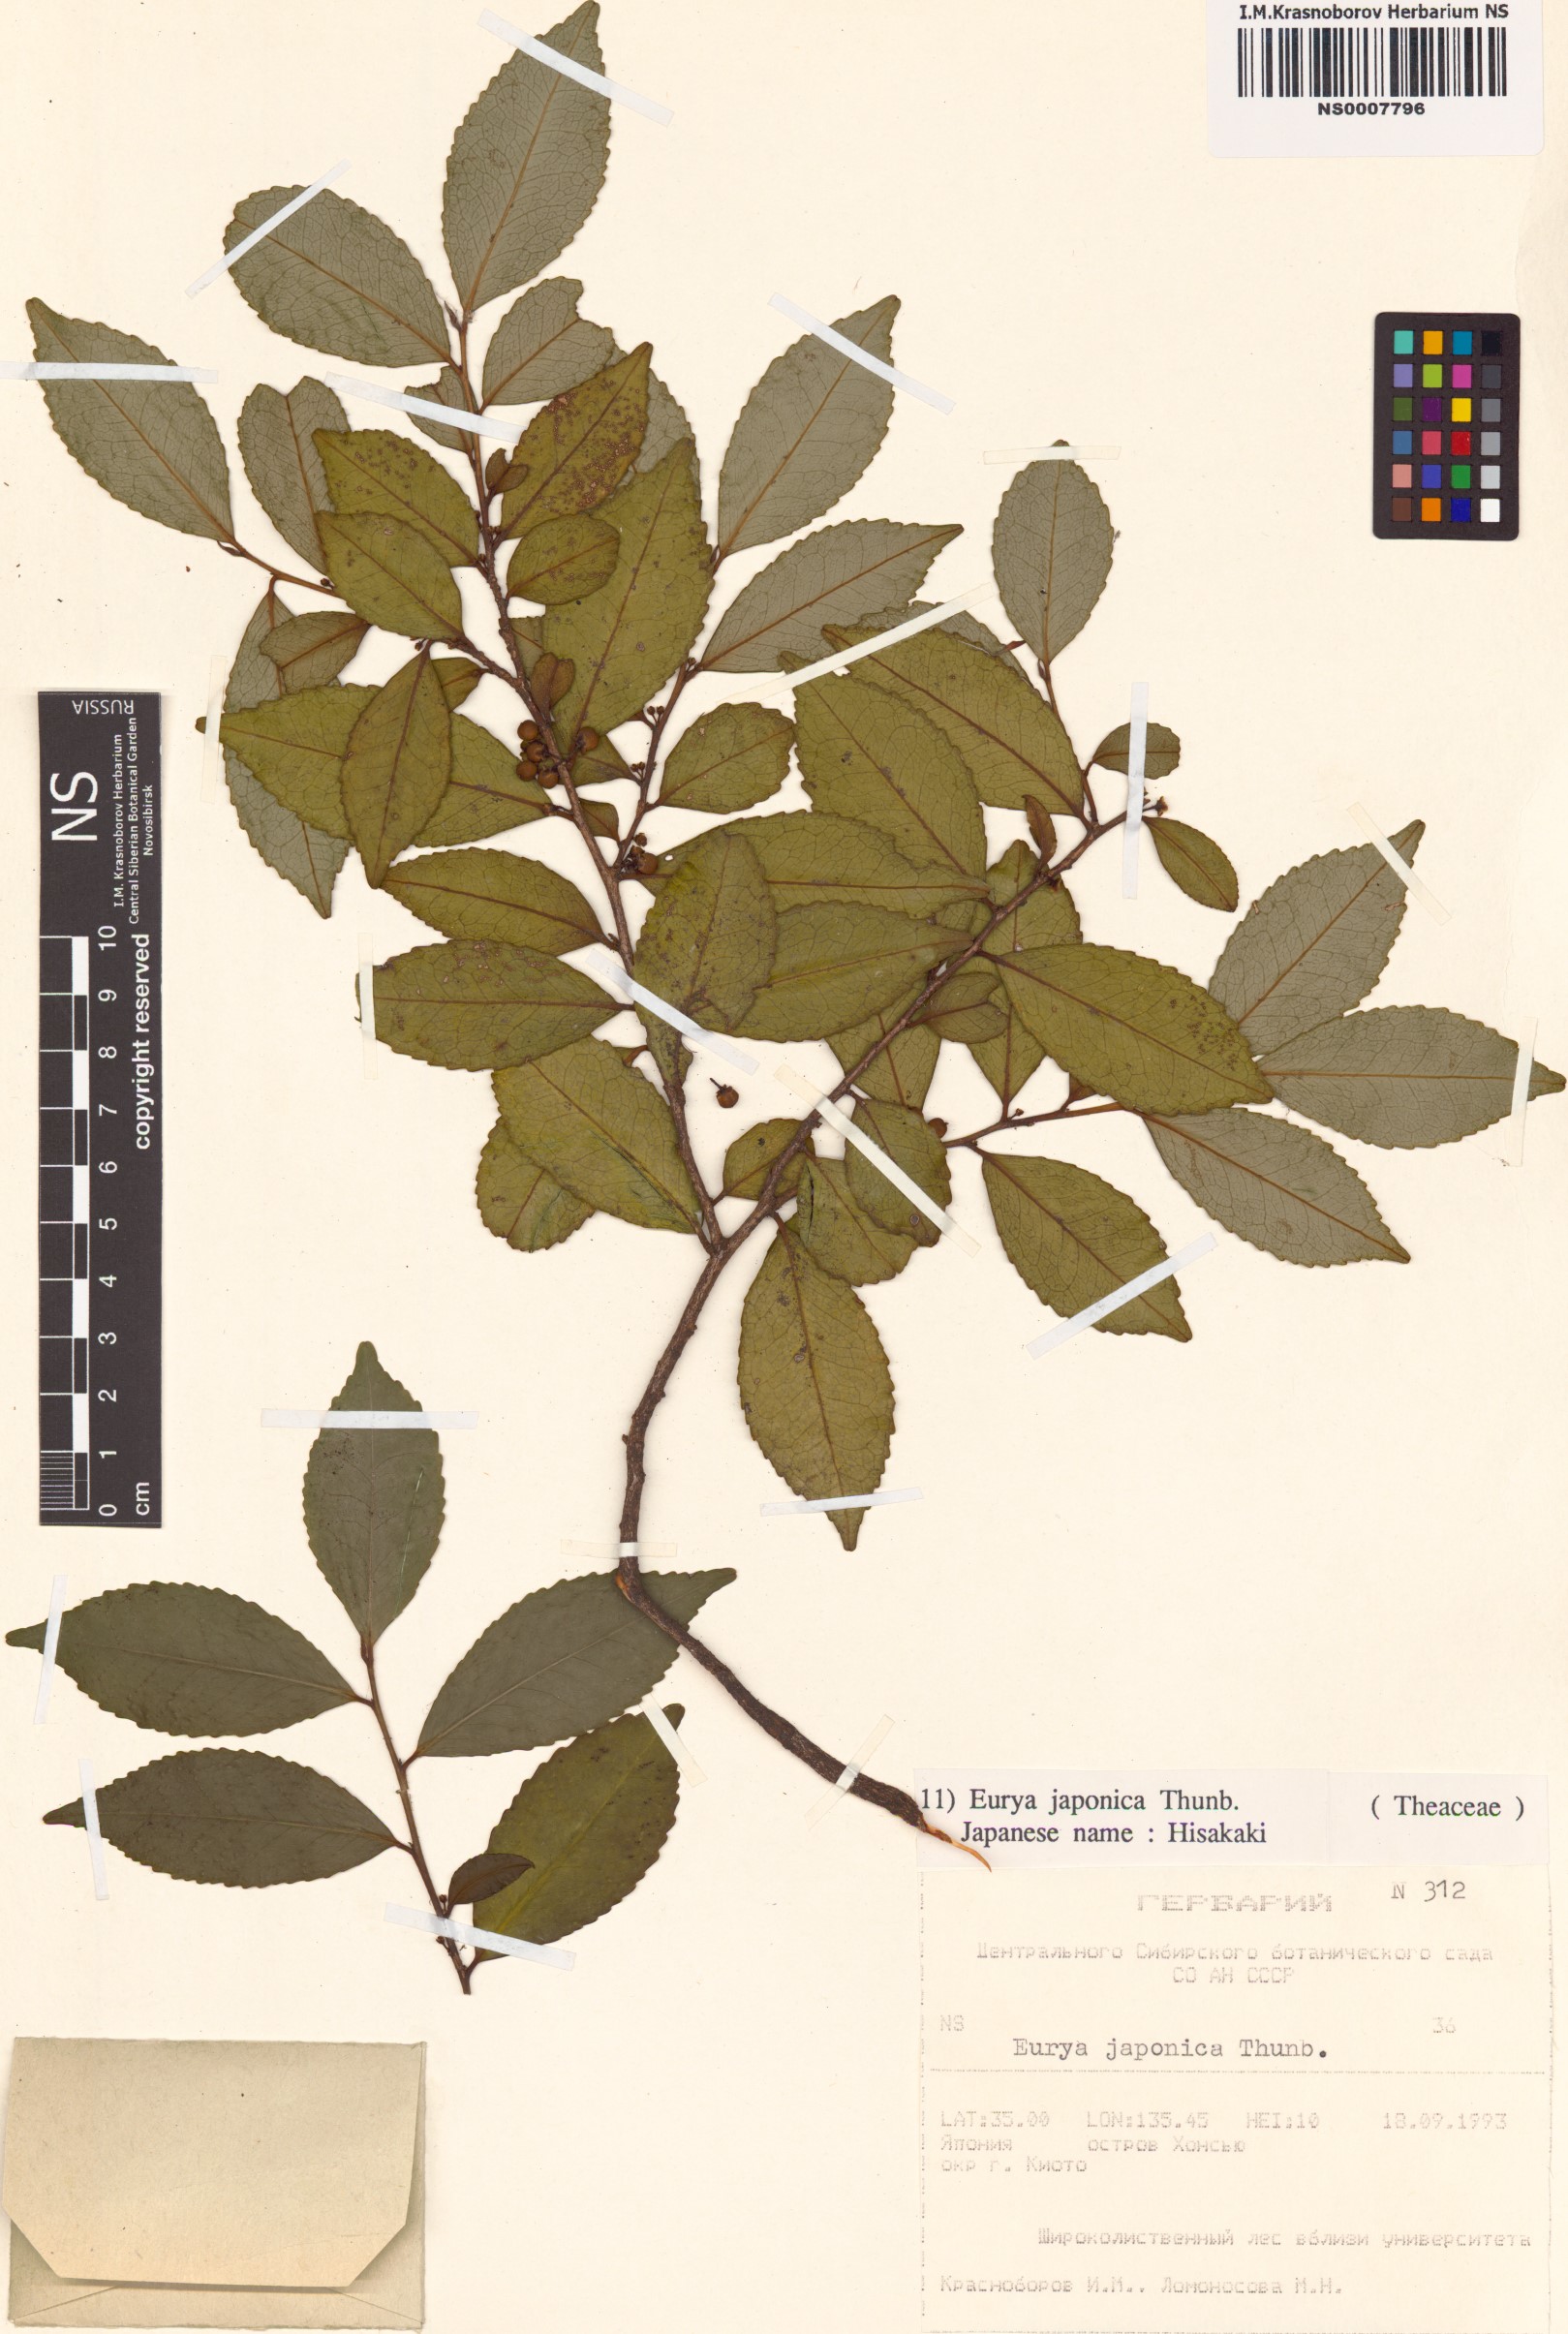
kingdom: Plantae
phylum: Tracheophyta
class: Magnoliopsida
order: Ericales
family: Pentaphylacaceae
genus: Eurya
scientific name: Eurya japonica
